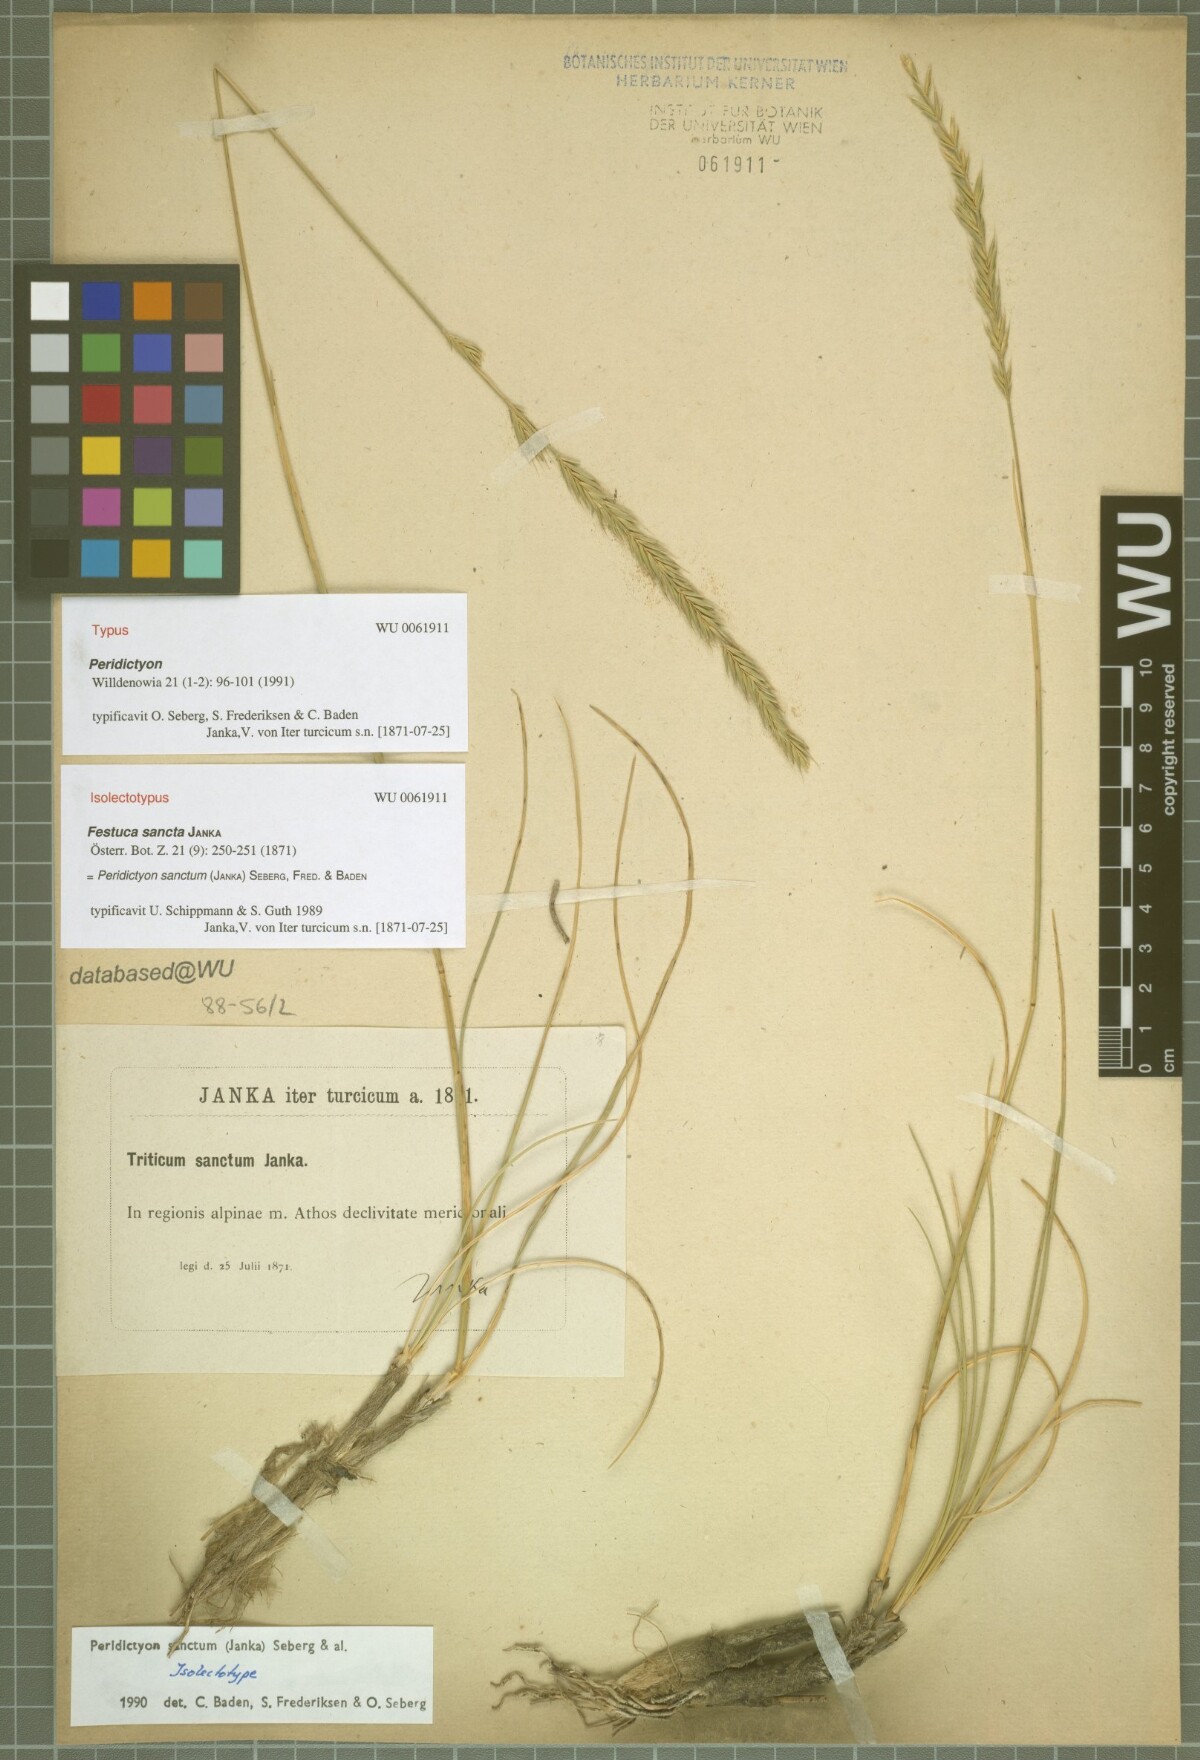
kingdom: Plantae
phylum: Tracheophyta
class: Liliopsida
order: Poales
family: Poaceae
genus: Peridictyon
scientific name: Peridictyon sanctum
